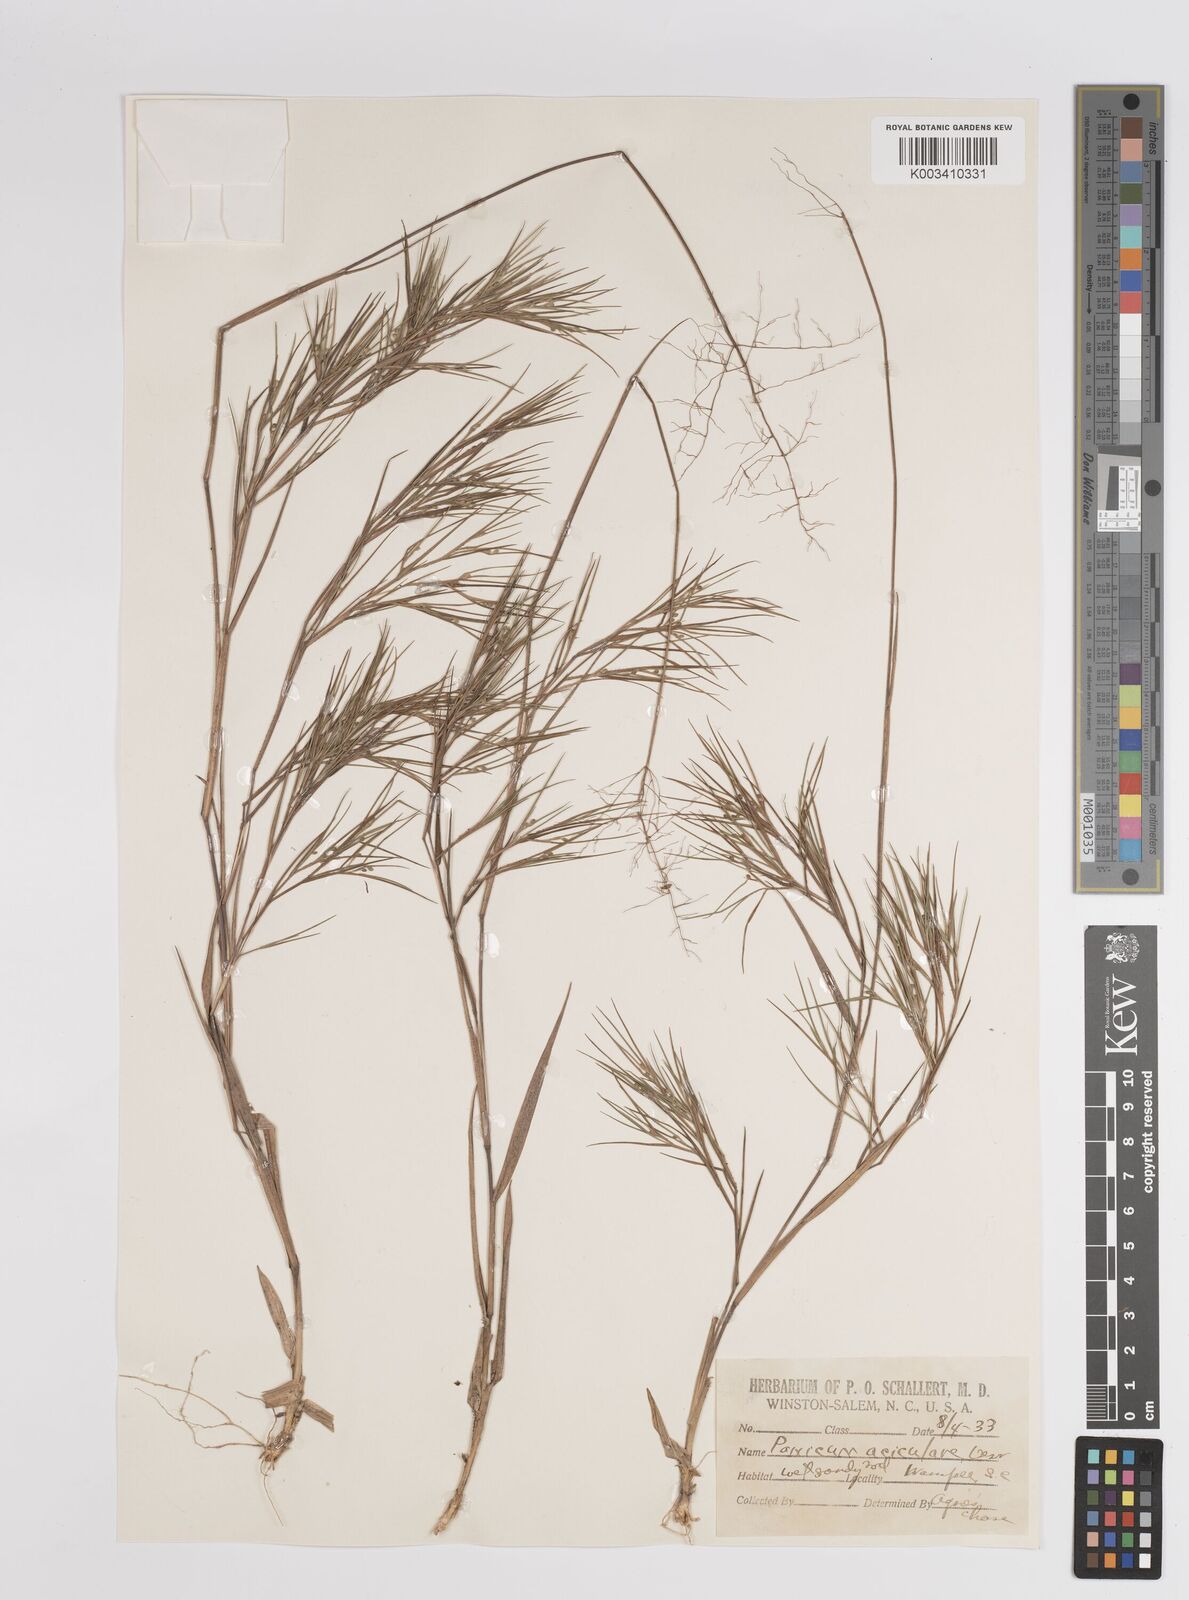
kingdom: Plantae
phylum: Tracheophyta
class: Liliopsida
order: Poales
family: Poaceae
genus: Dichanthelium
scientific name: Dichanthelium aciculare
